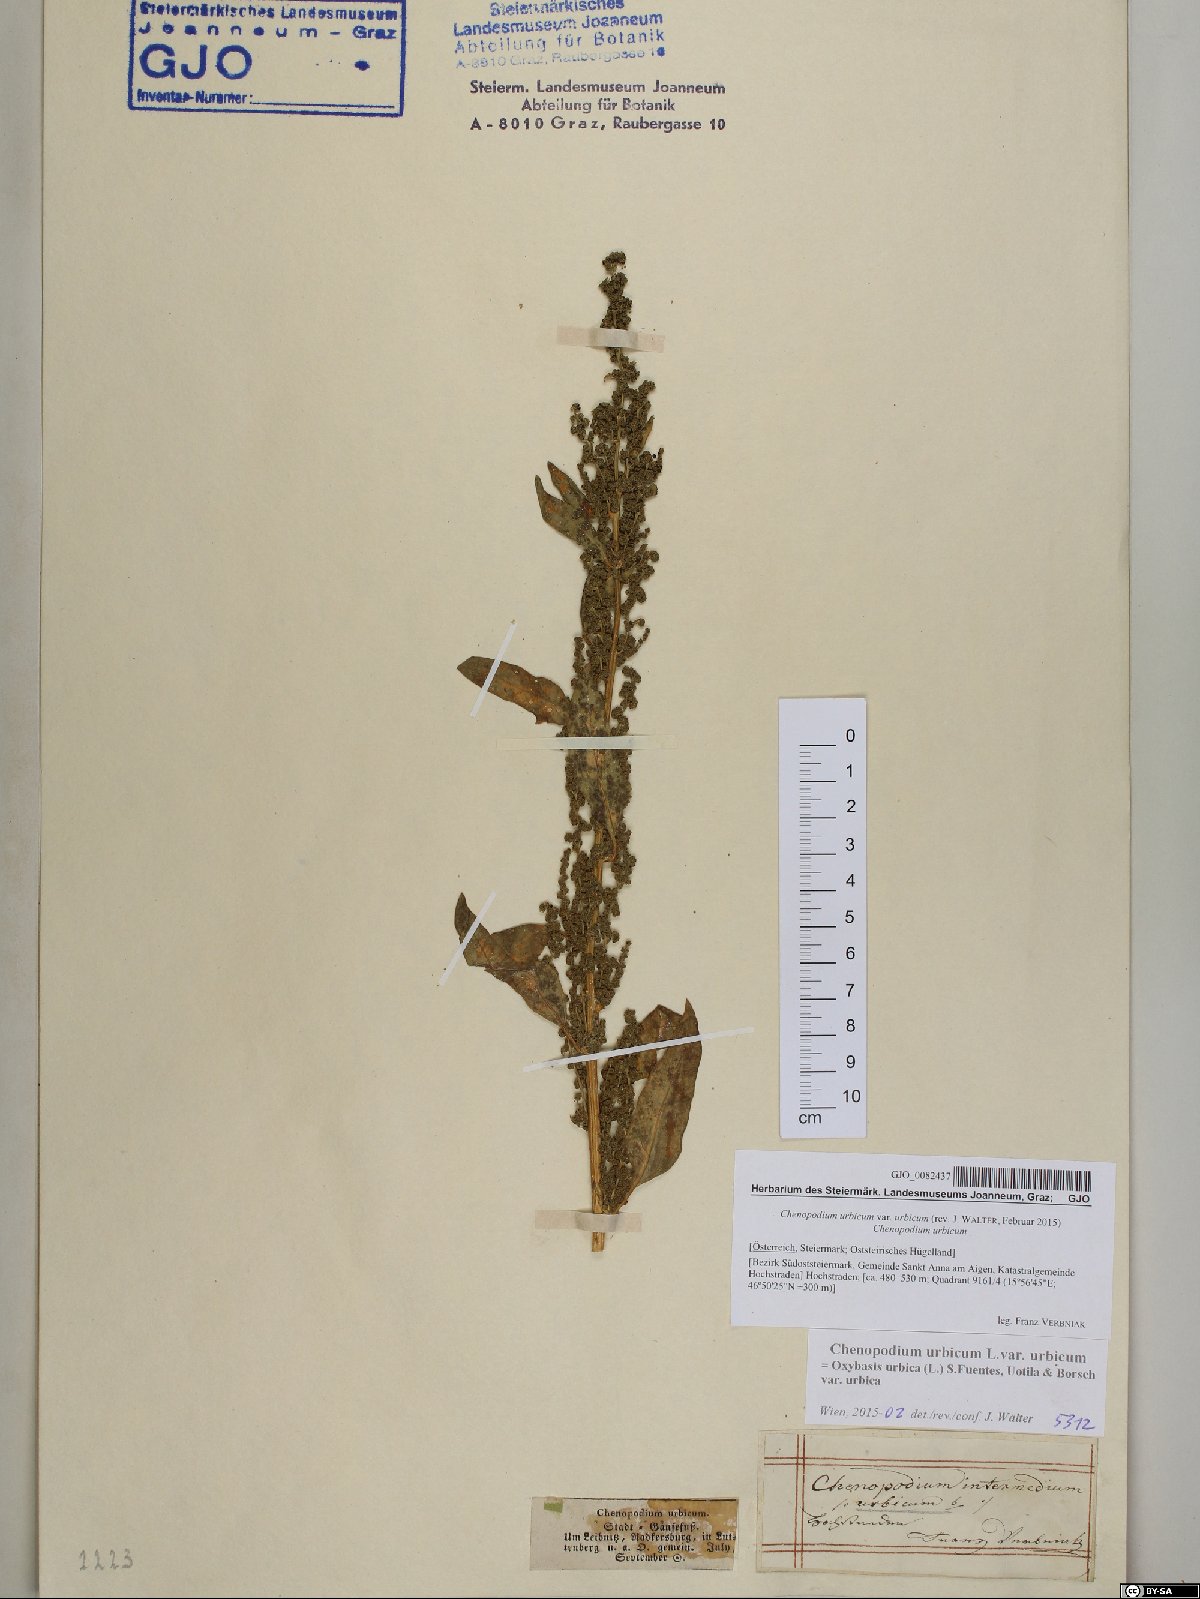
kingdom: Plantae
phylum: Tracheophyta
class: Magnoliopsida
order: Caryophyllales
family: Amaranthaceae
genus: Oxybasis
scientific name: Oxybasis urbica
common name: City goosefoot
